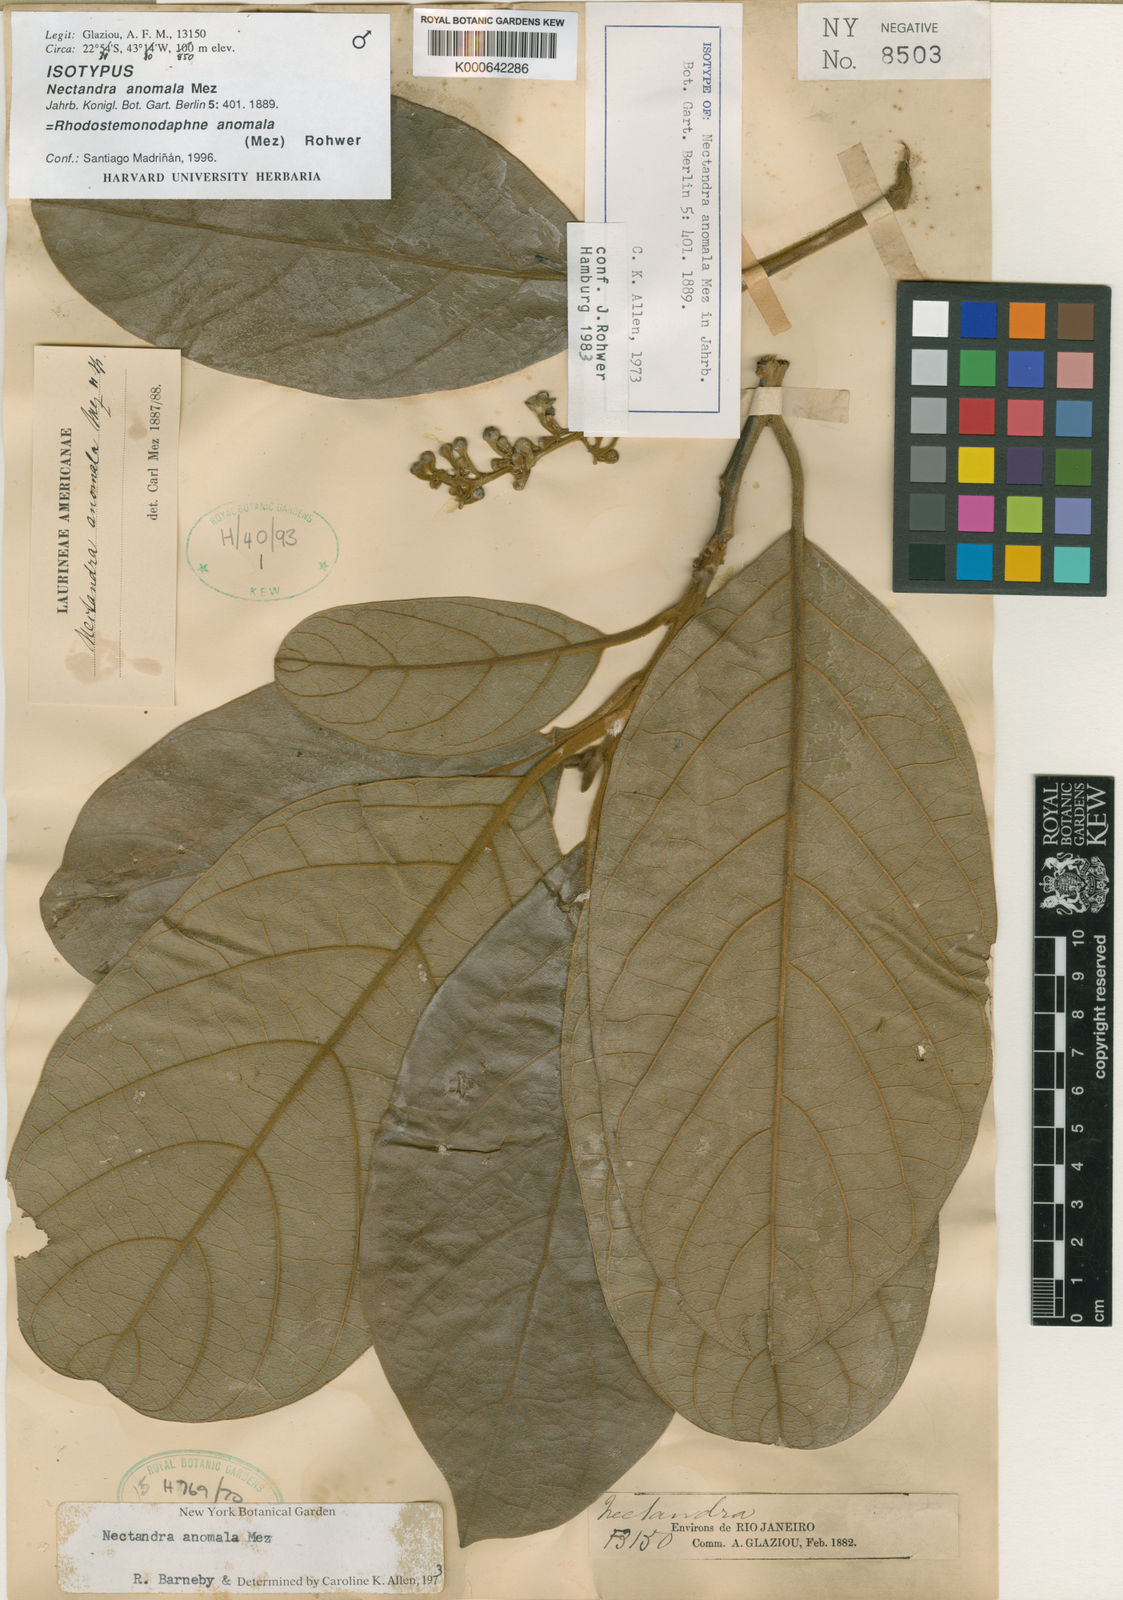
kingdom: Plantae
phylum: Tracheophyta
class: Magnoliopsida
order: Laurales
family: Lauraceae
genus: Pleurothyrium
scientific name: Pleurothyrium amplifolium
